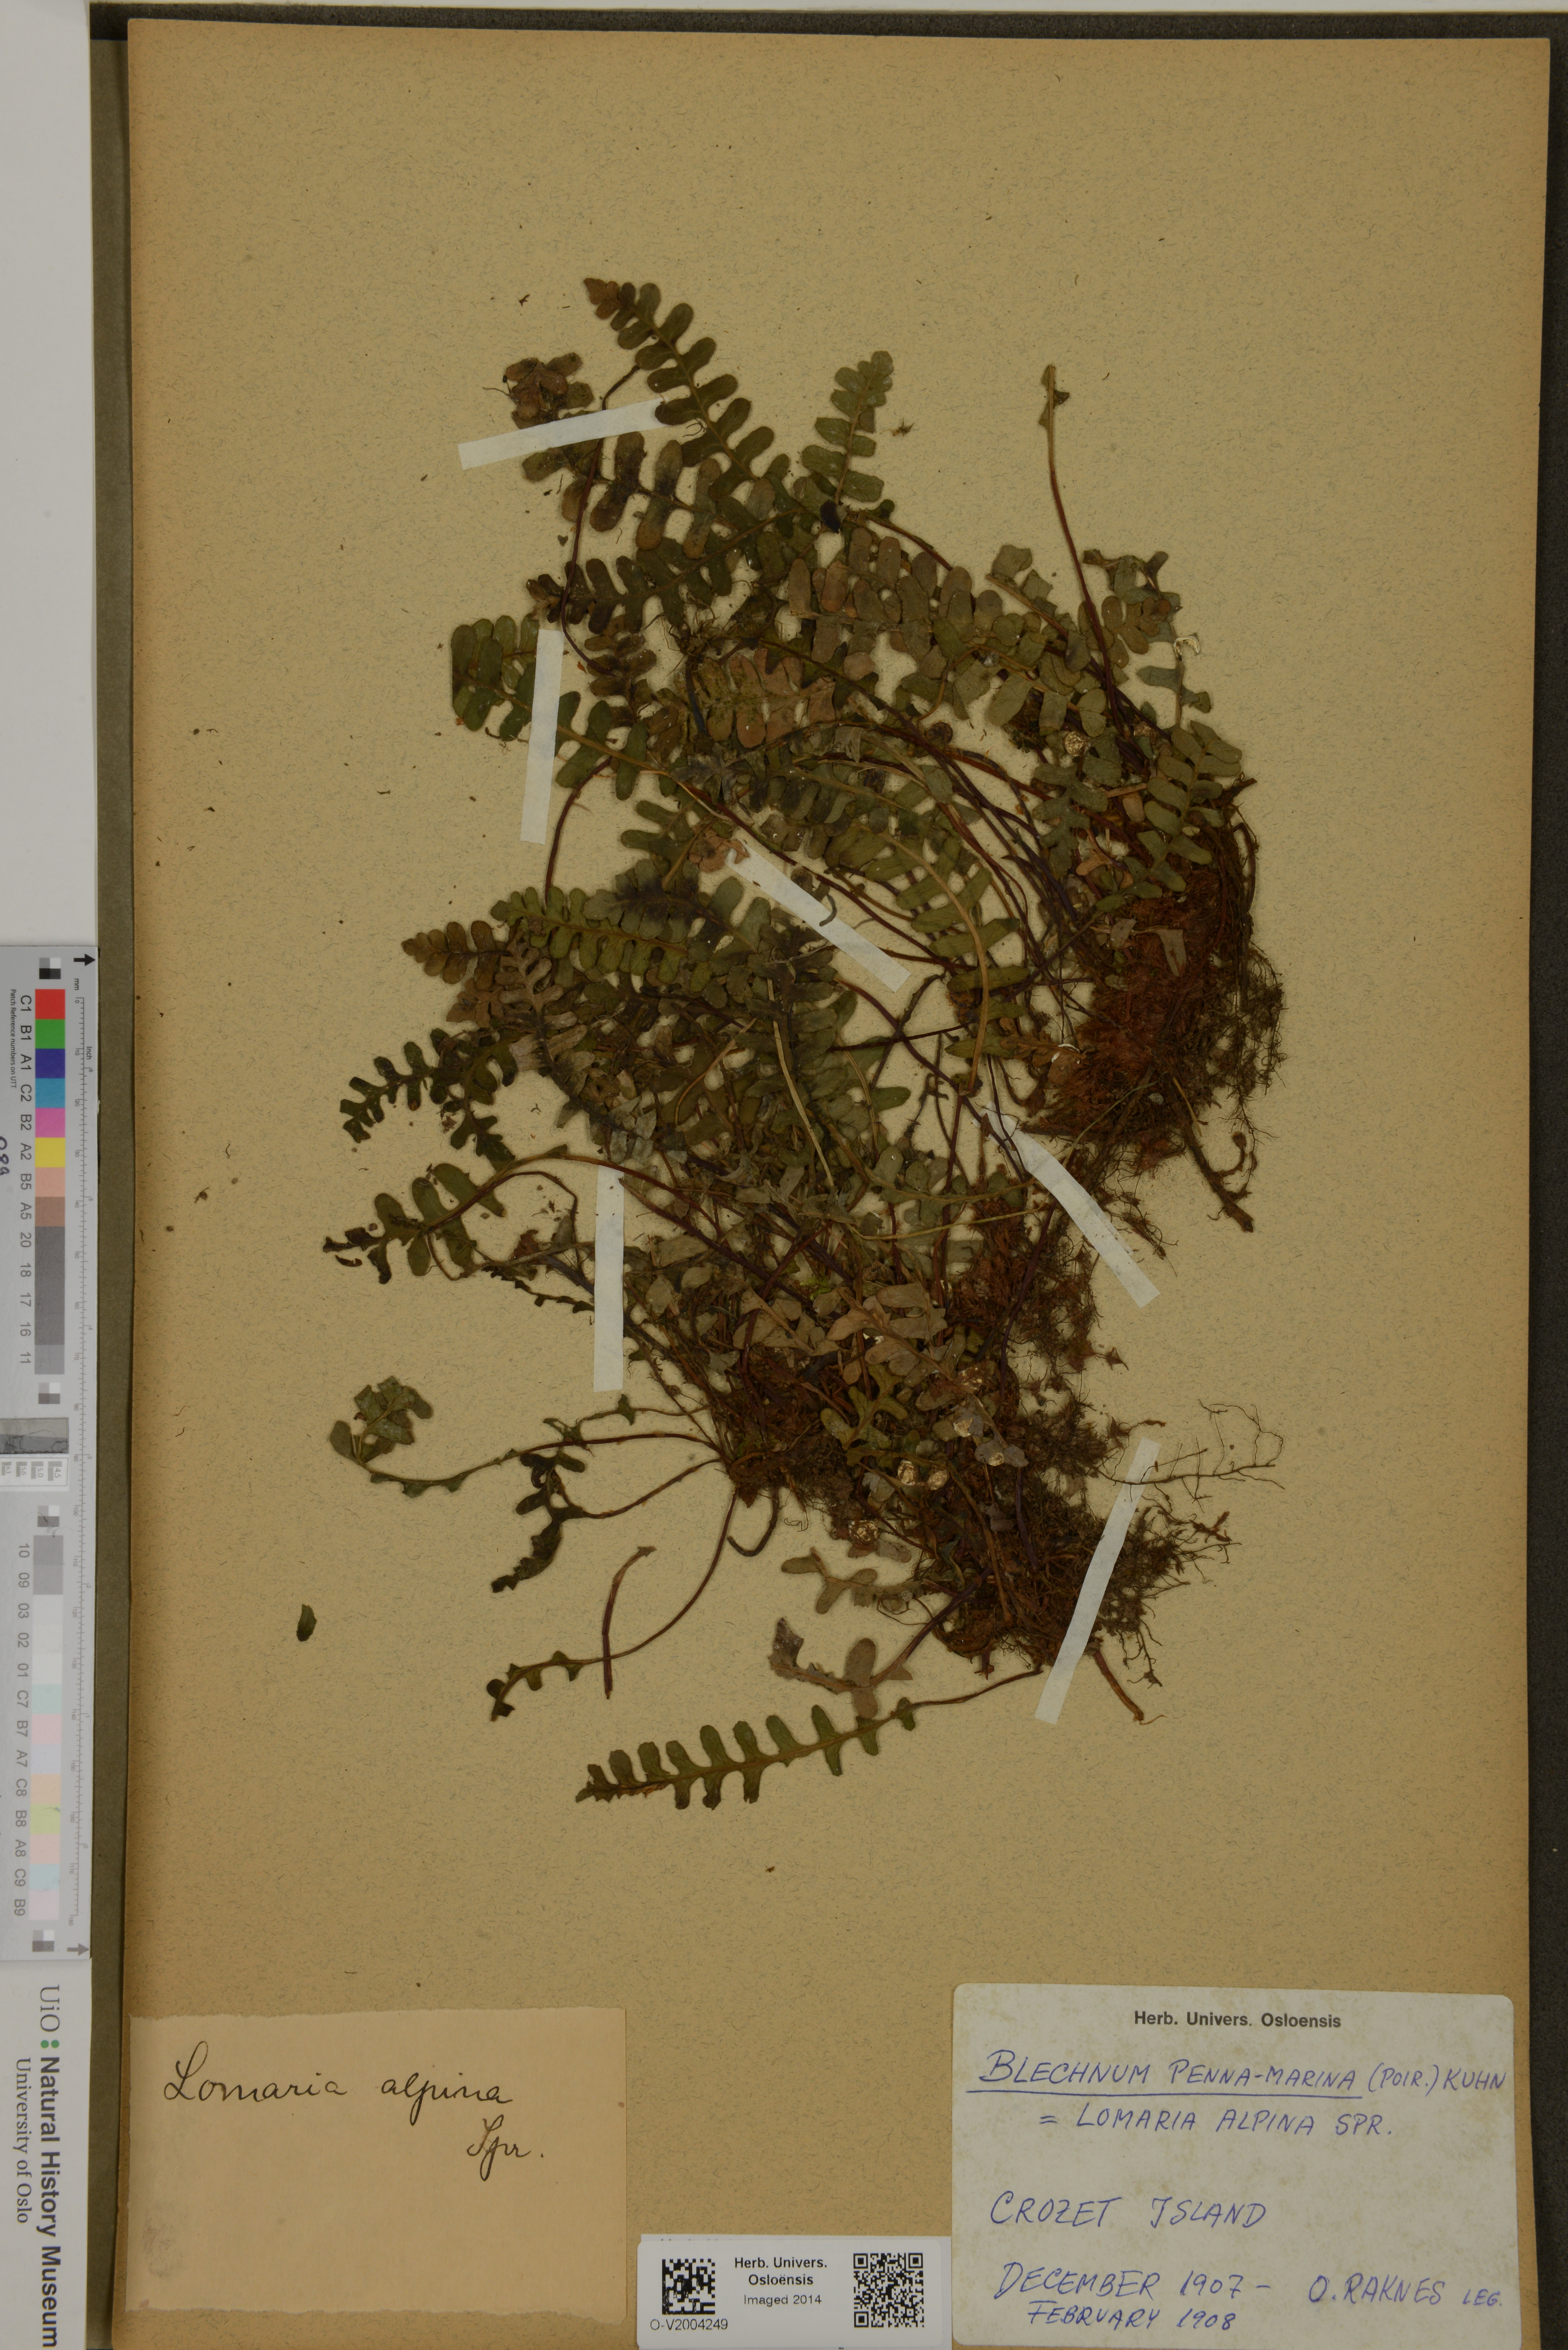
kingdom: Plantae
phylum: Tracheophyta
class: Polypodiopsida
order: Polypodiales
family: Blechnaceae
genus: Austroblechnum
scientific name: Austroblechnum penna-marina
